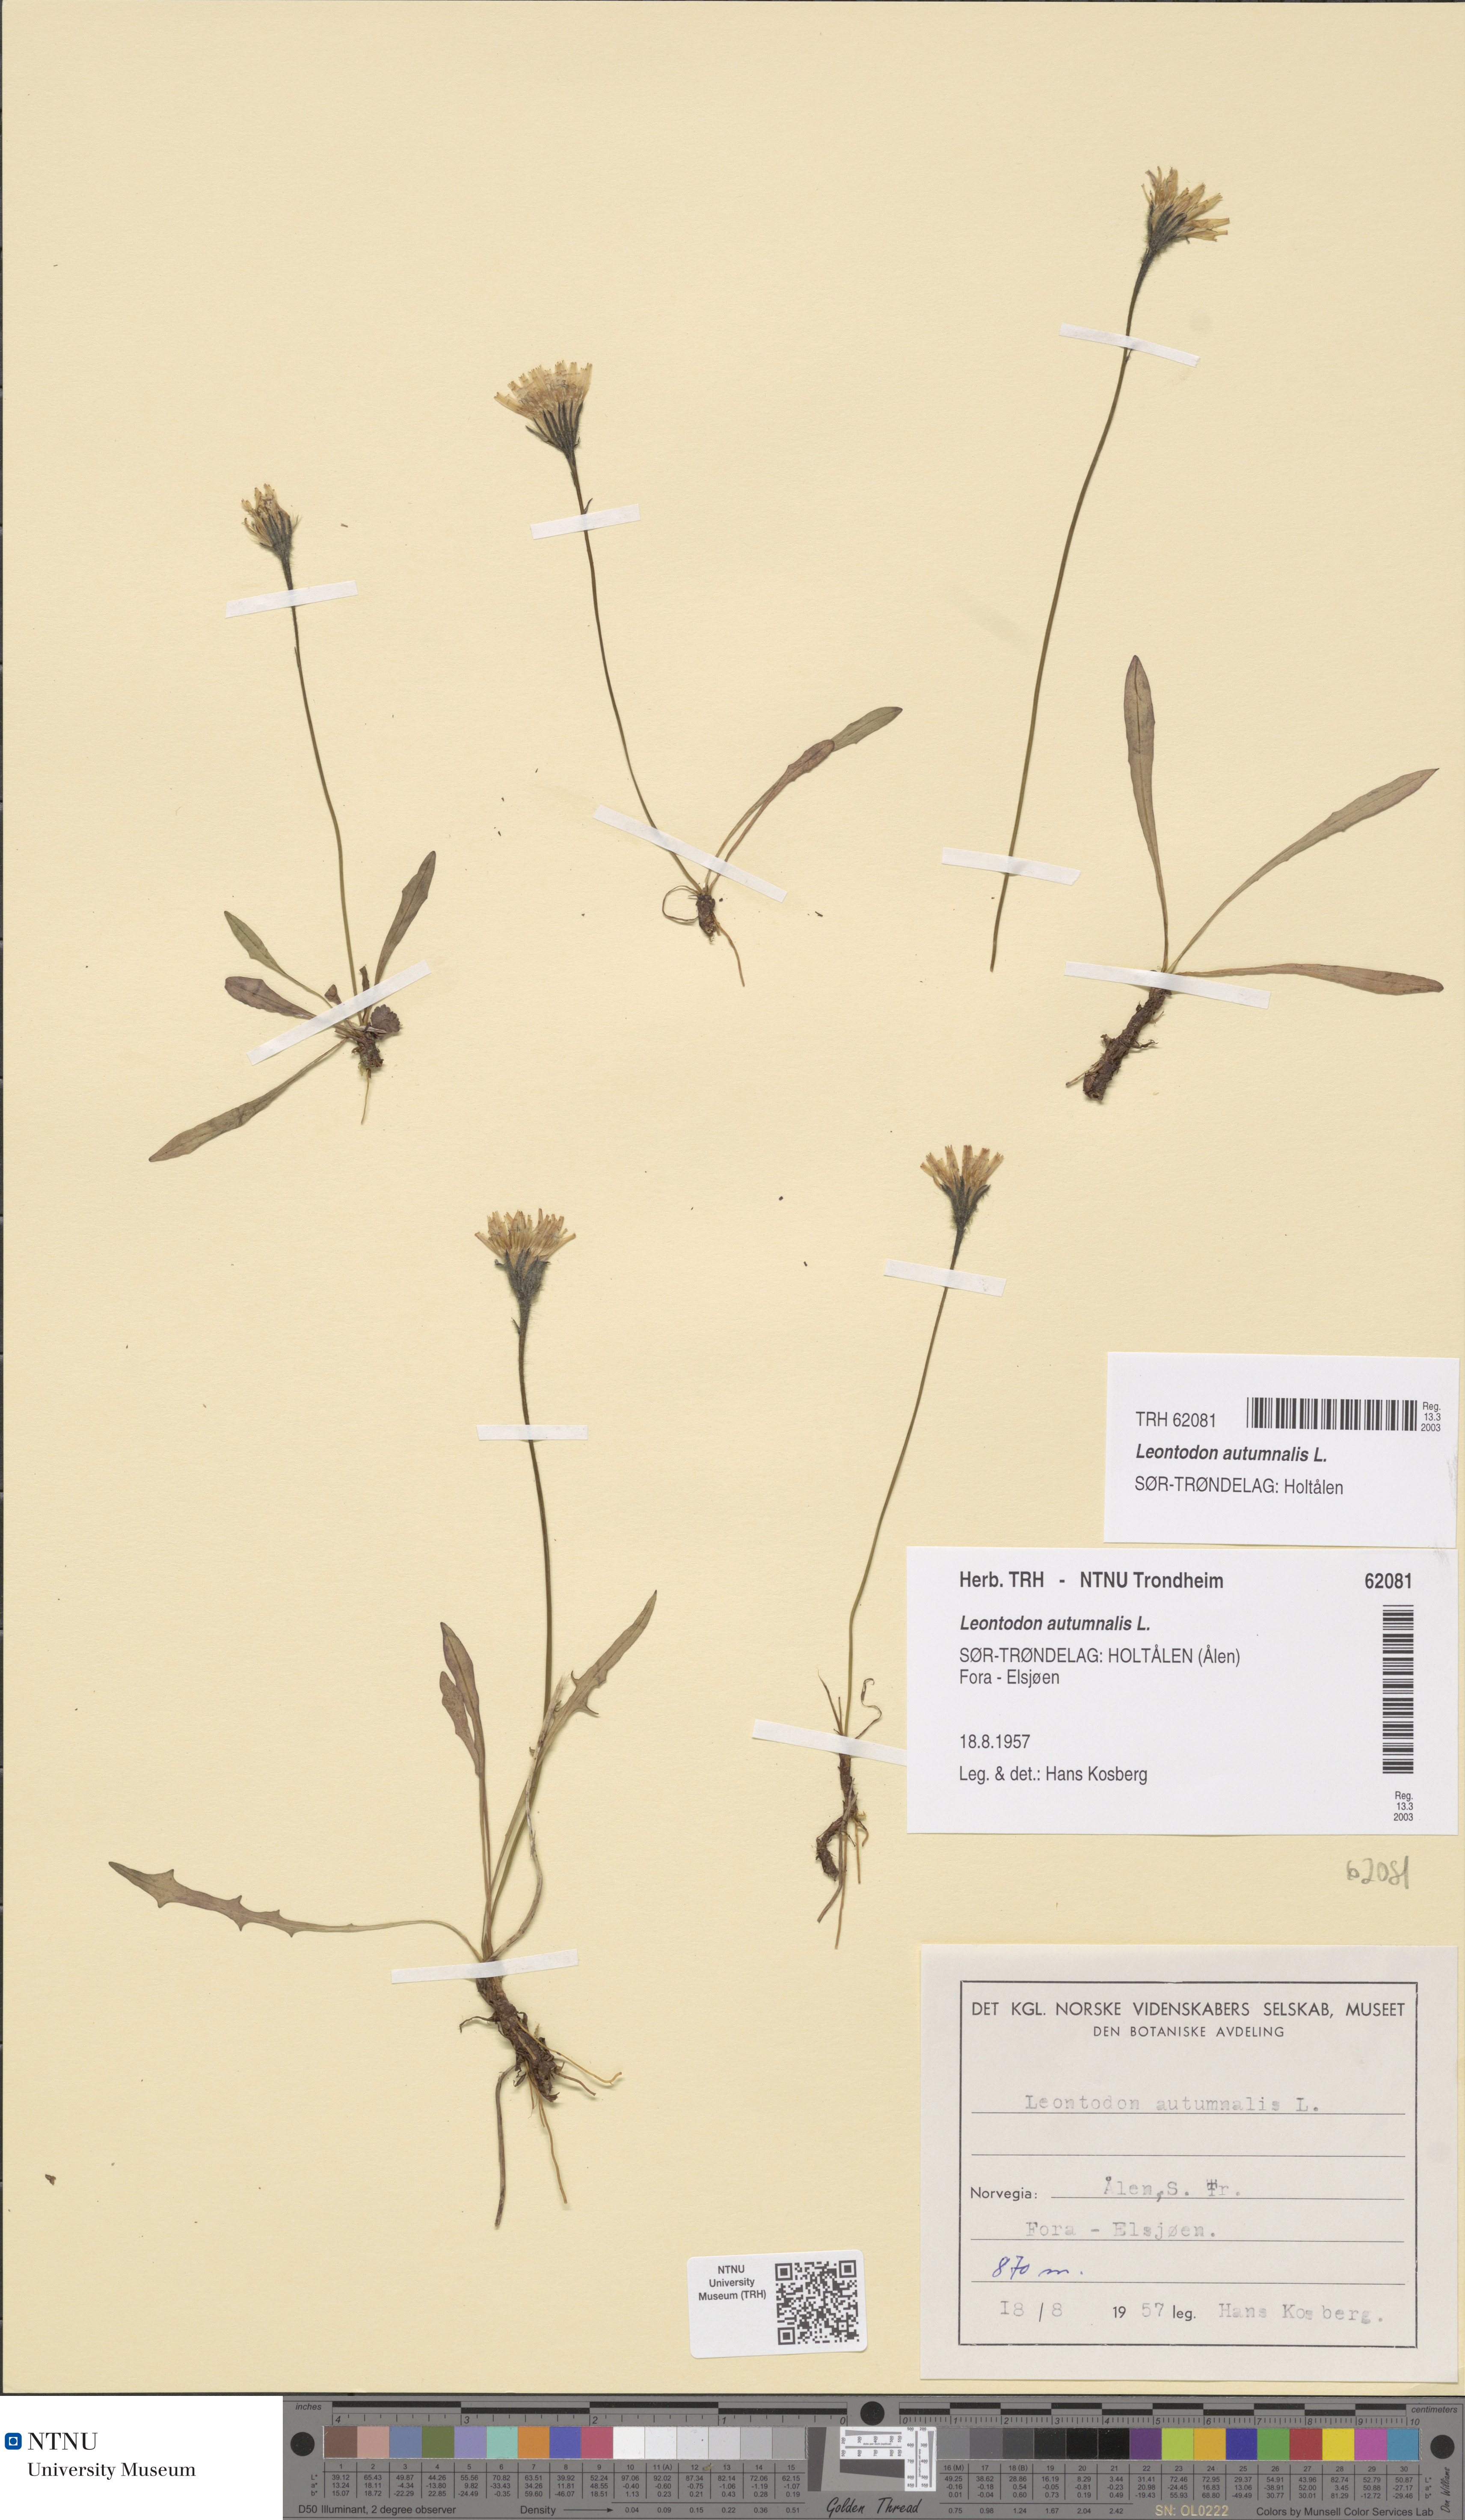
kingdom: Plantae
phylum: Tracheophyta
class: Magnoliopsida
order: Asterales
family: Asteraceae
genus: Scorzoneroides
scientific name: Scorzoneroides autumnalis
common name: Autumn hawkbit
